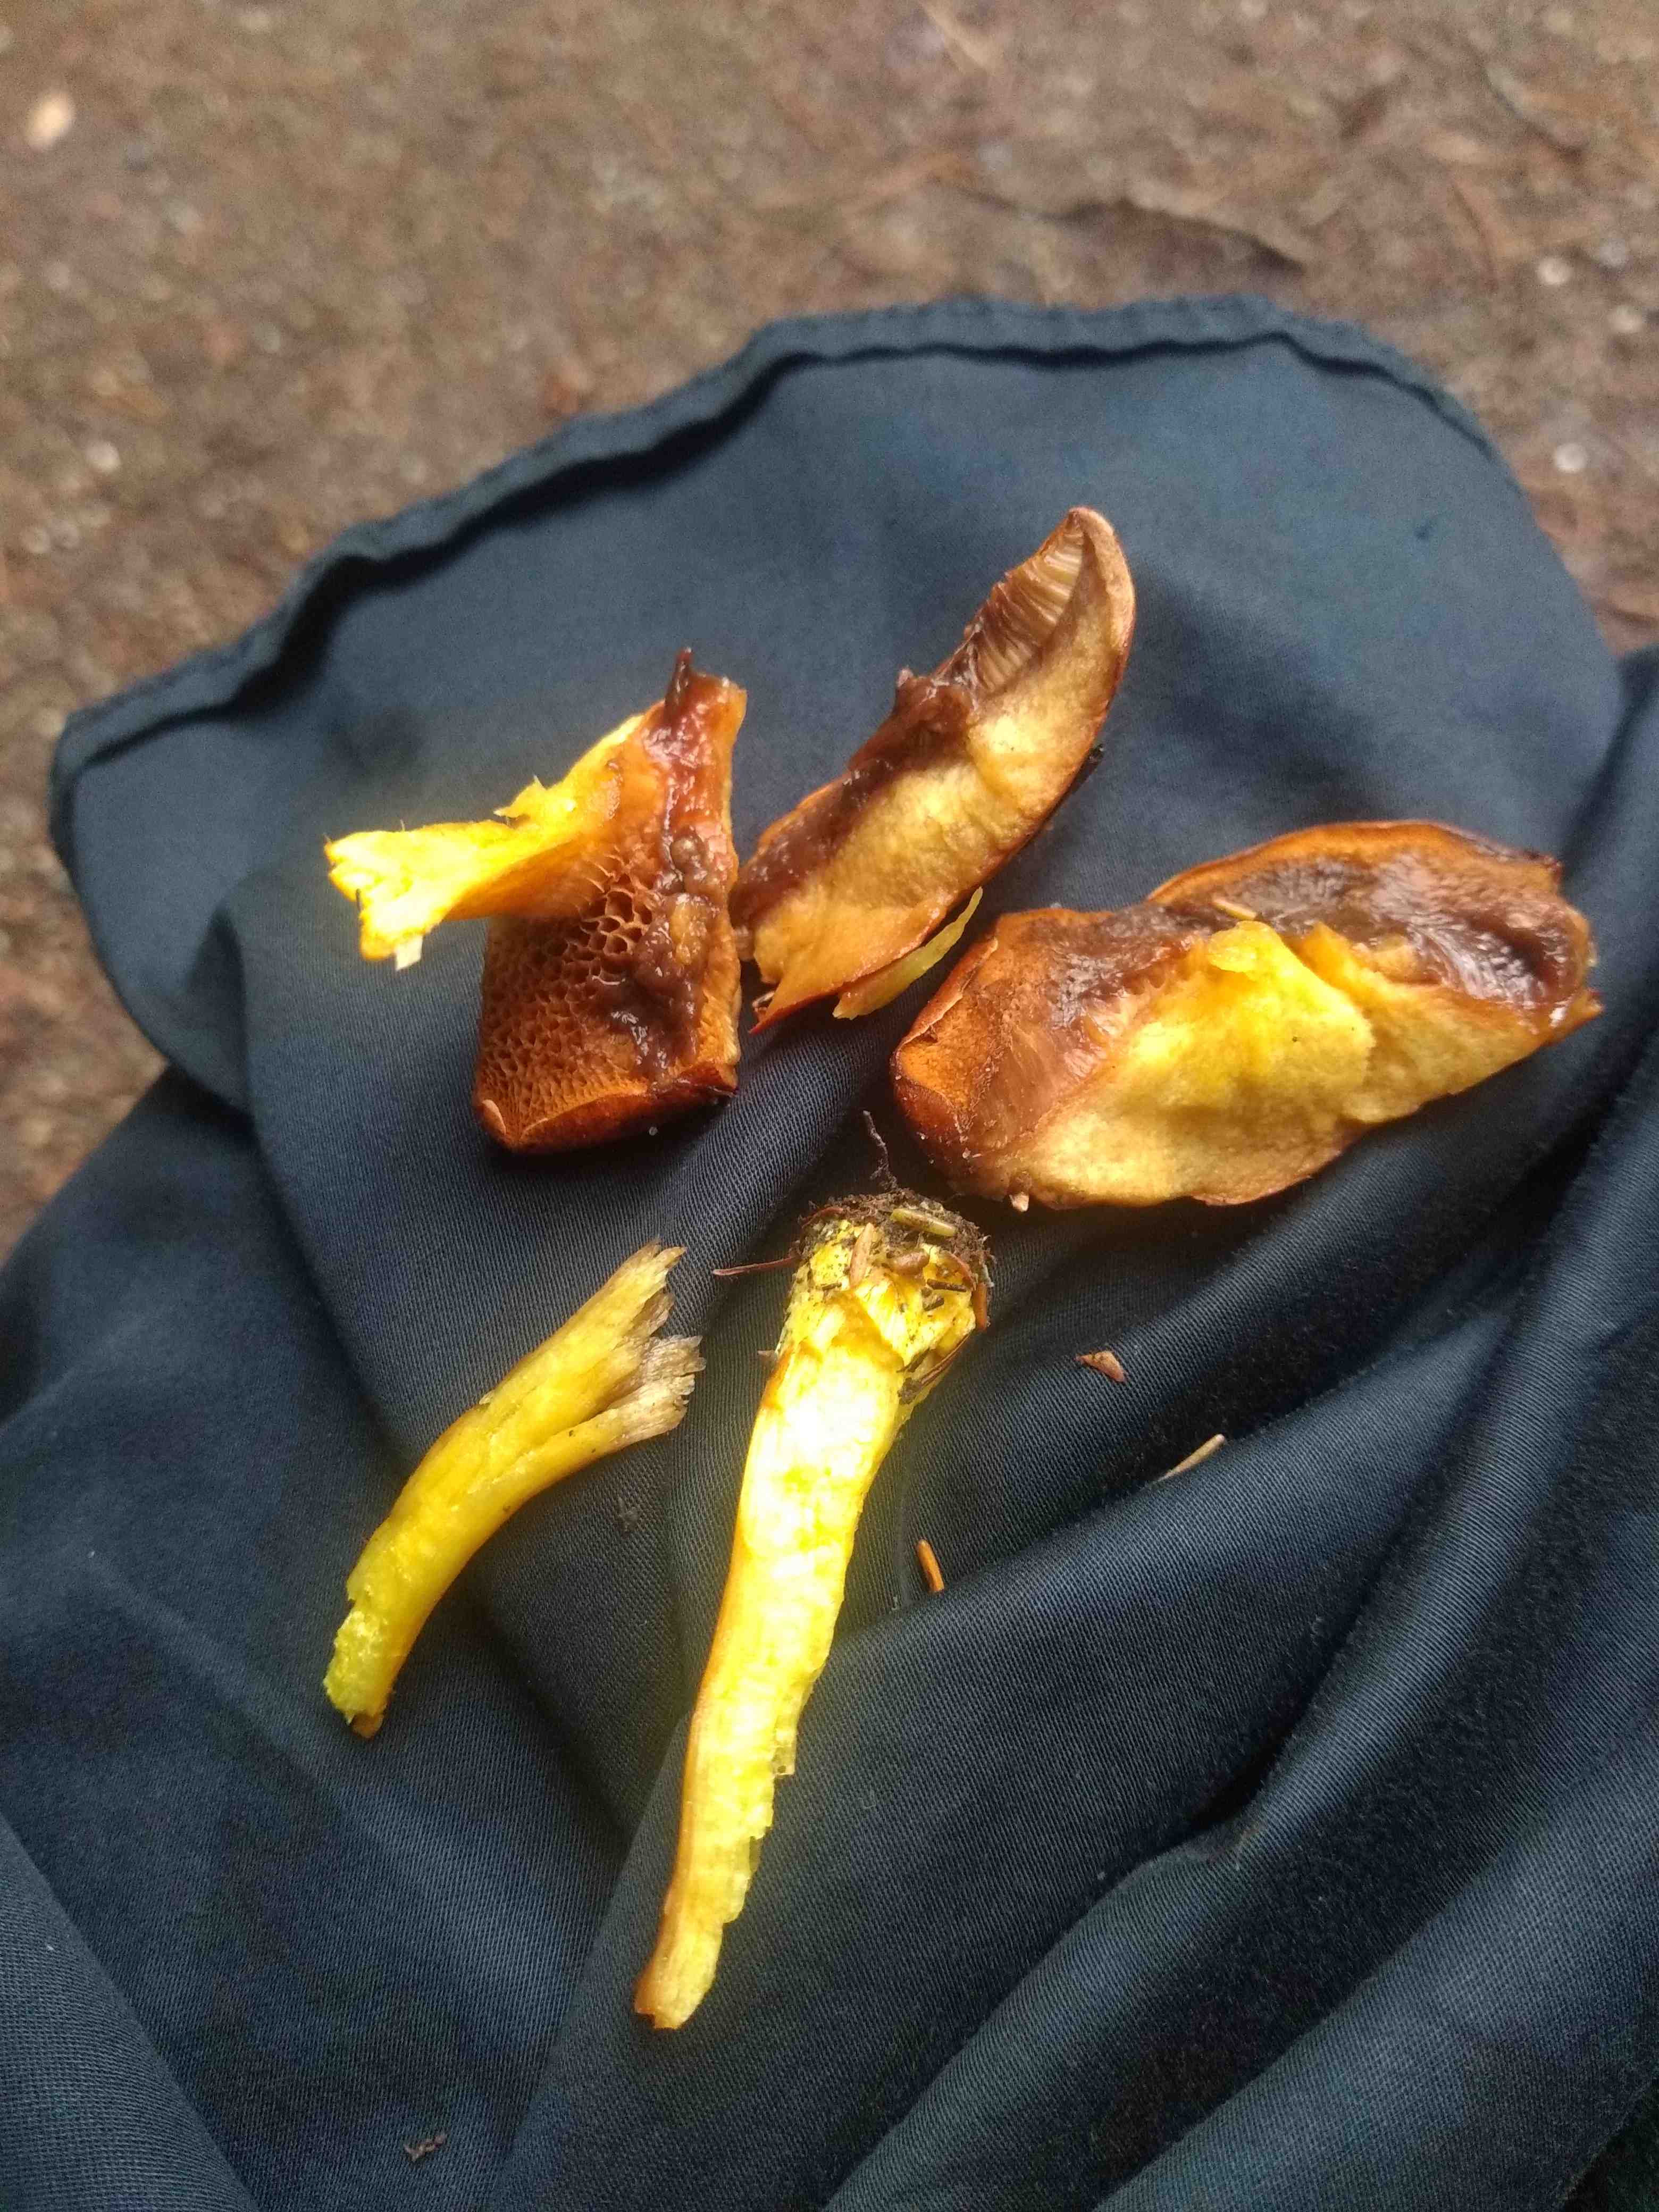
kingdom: Fungi
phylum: Basidiomycota
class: Agaricomycetes
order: Boletales
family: Boletaceae
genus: Chalciporus
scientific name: Chalciporus piperatus
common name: peberrørhat
